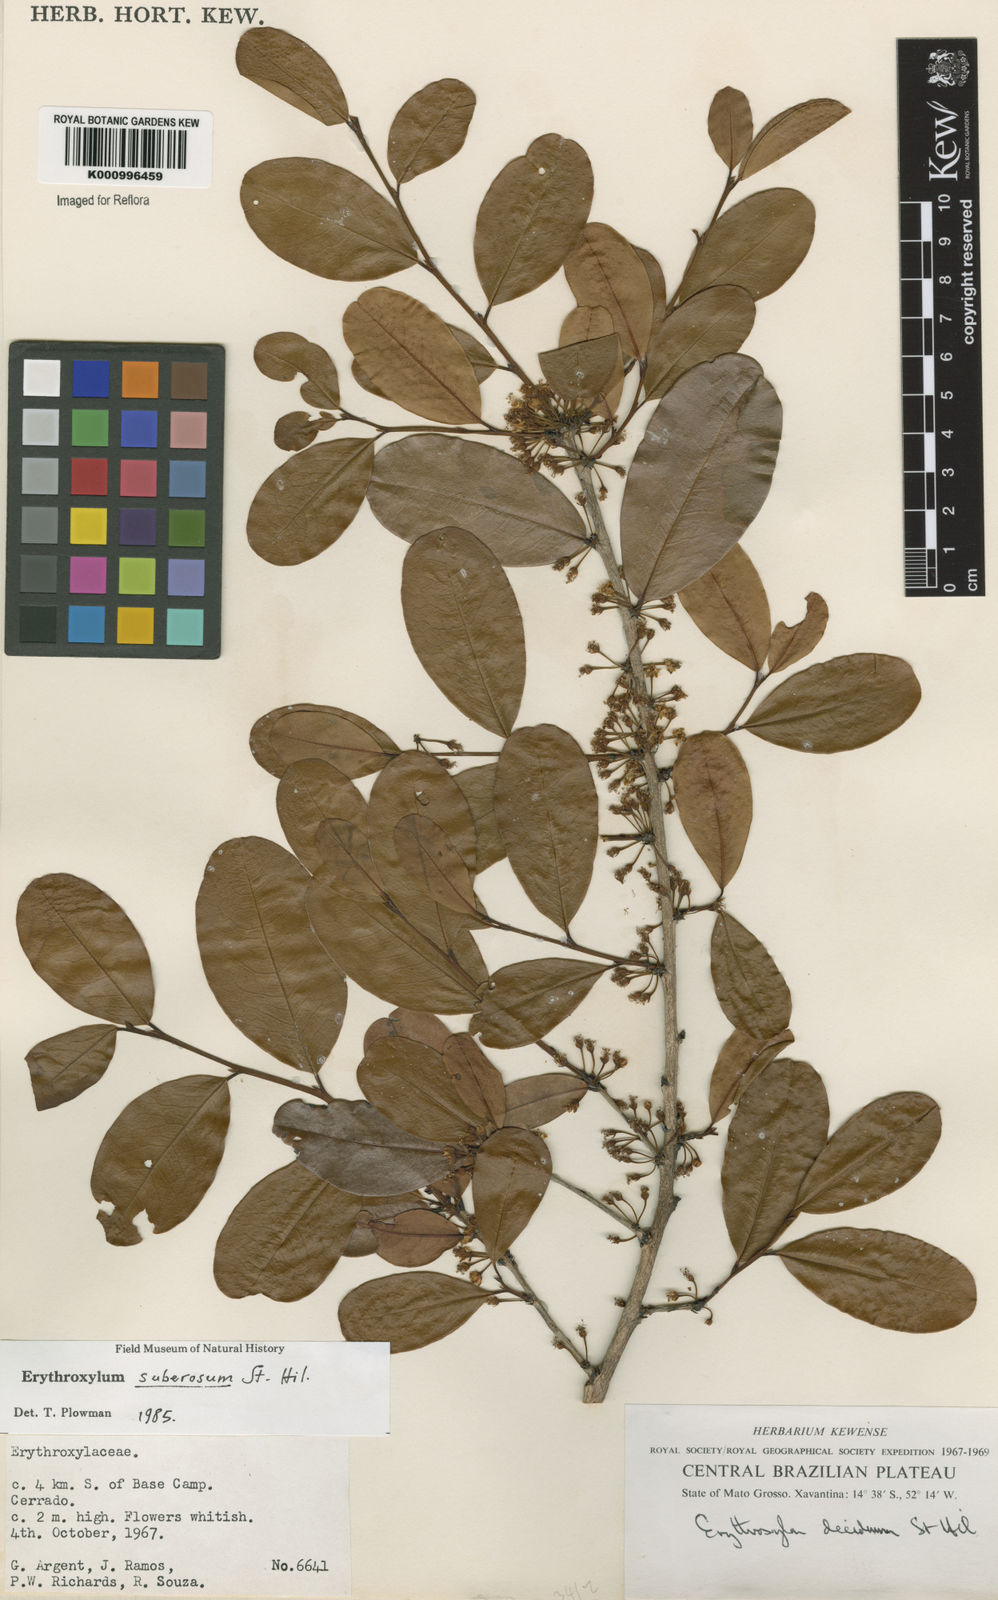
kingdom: Plantae
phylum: Tracheophyta
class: Magnoliopsida
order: Malpighiales
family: Erythroxylaceae
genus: Erythroxylum
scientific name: Erythroxylum suberosum
